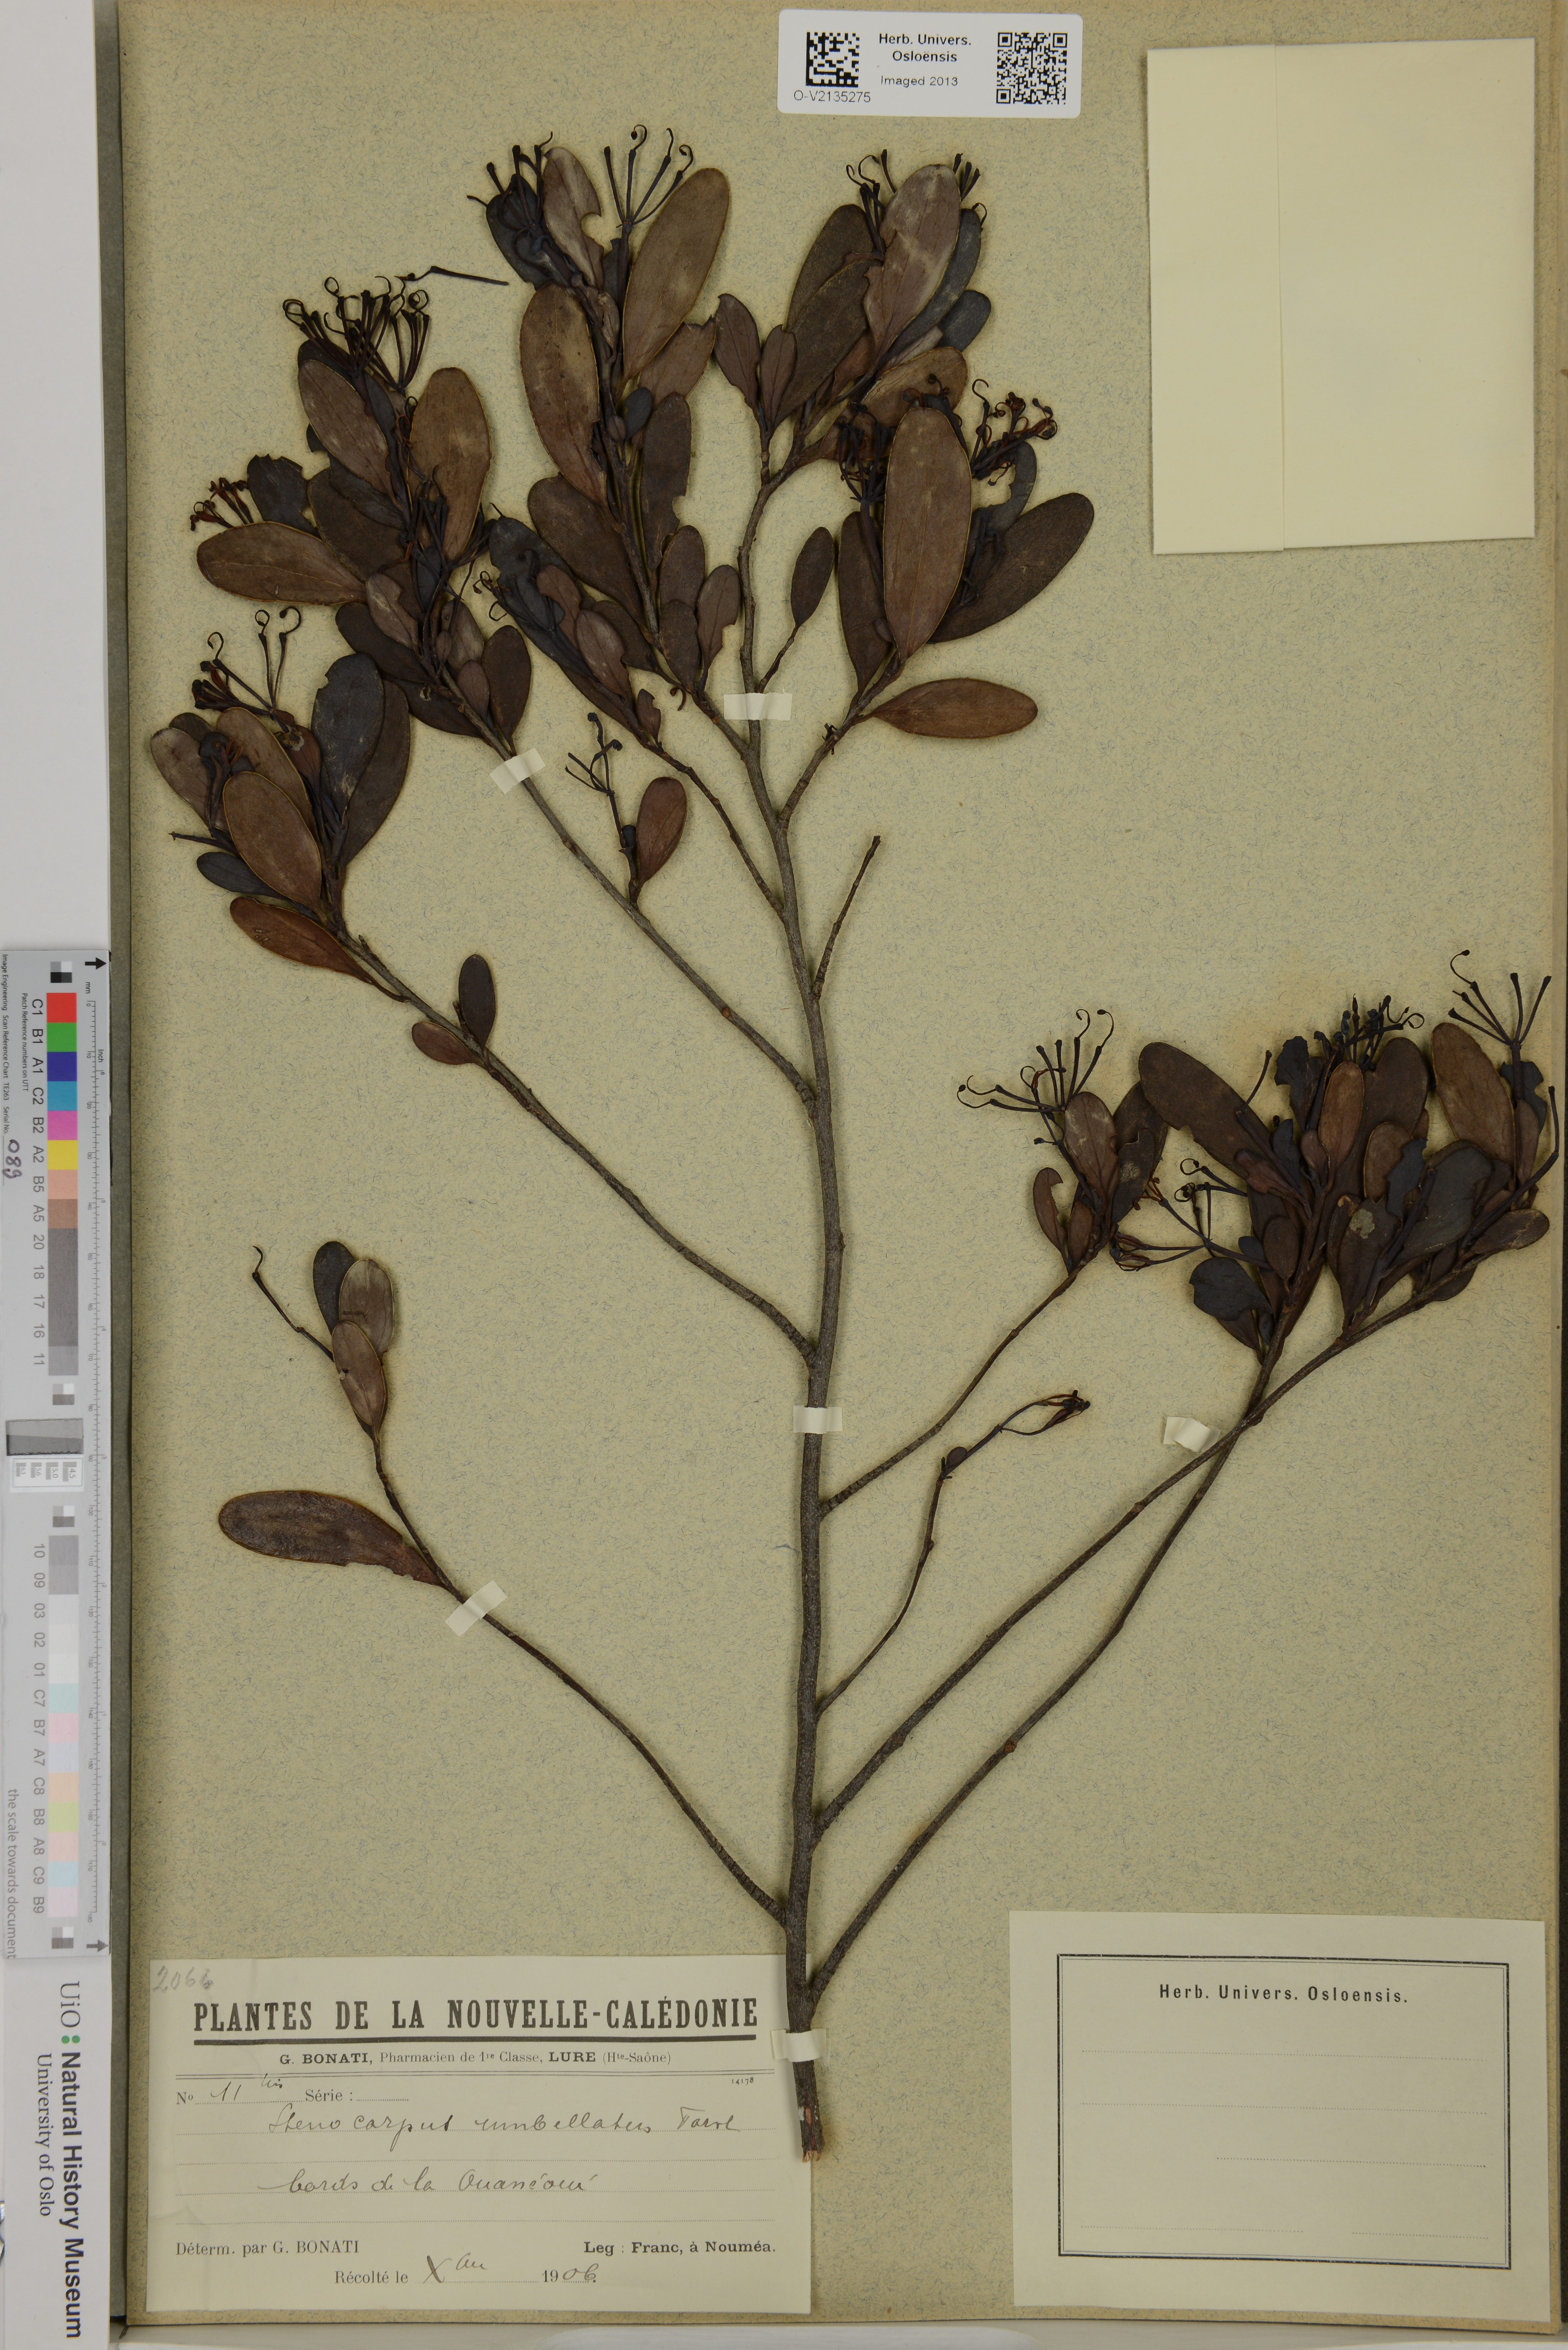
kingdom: Plantae
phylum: Tracheophyta
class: Magnoliopsida
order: Proteales
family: Proteaceae
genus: Stenocarpus
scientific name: Stenocarpus umbellifer
